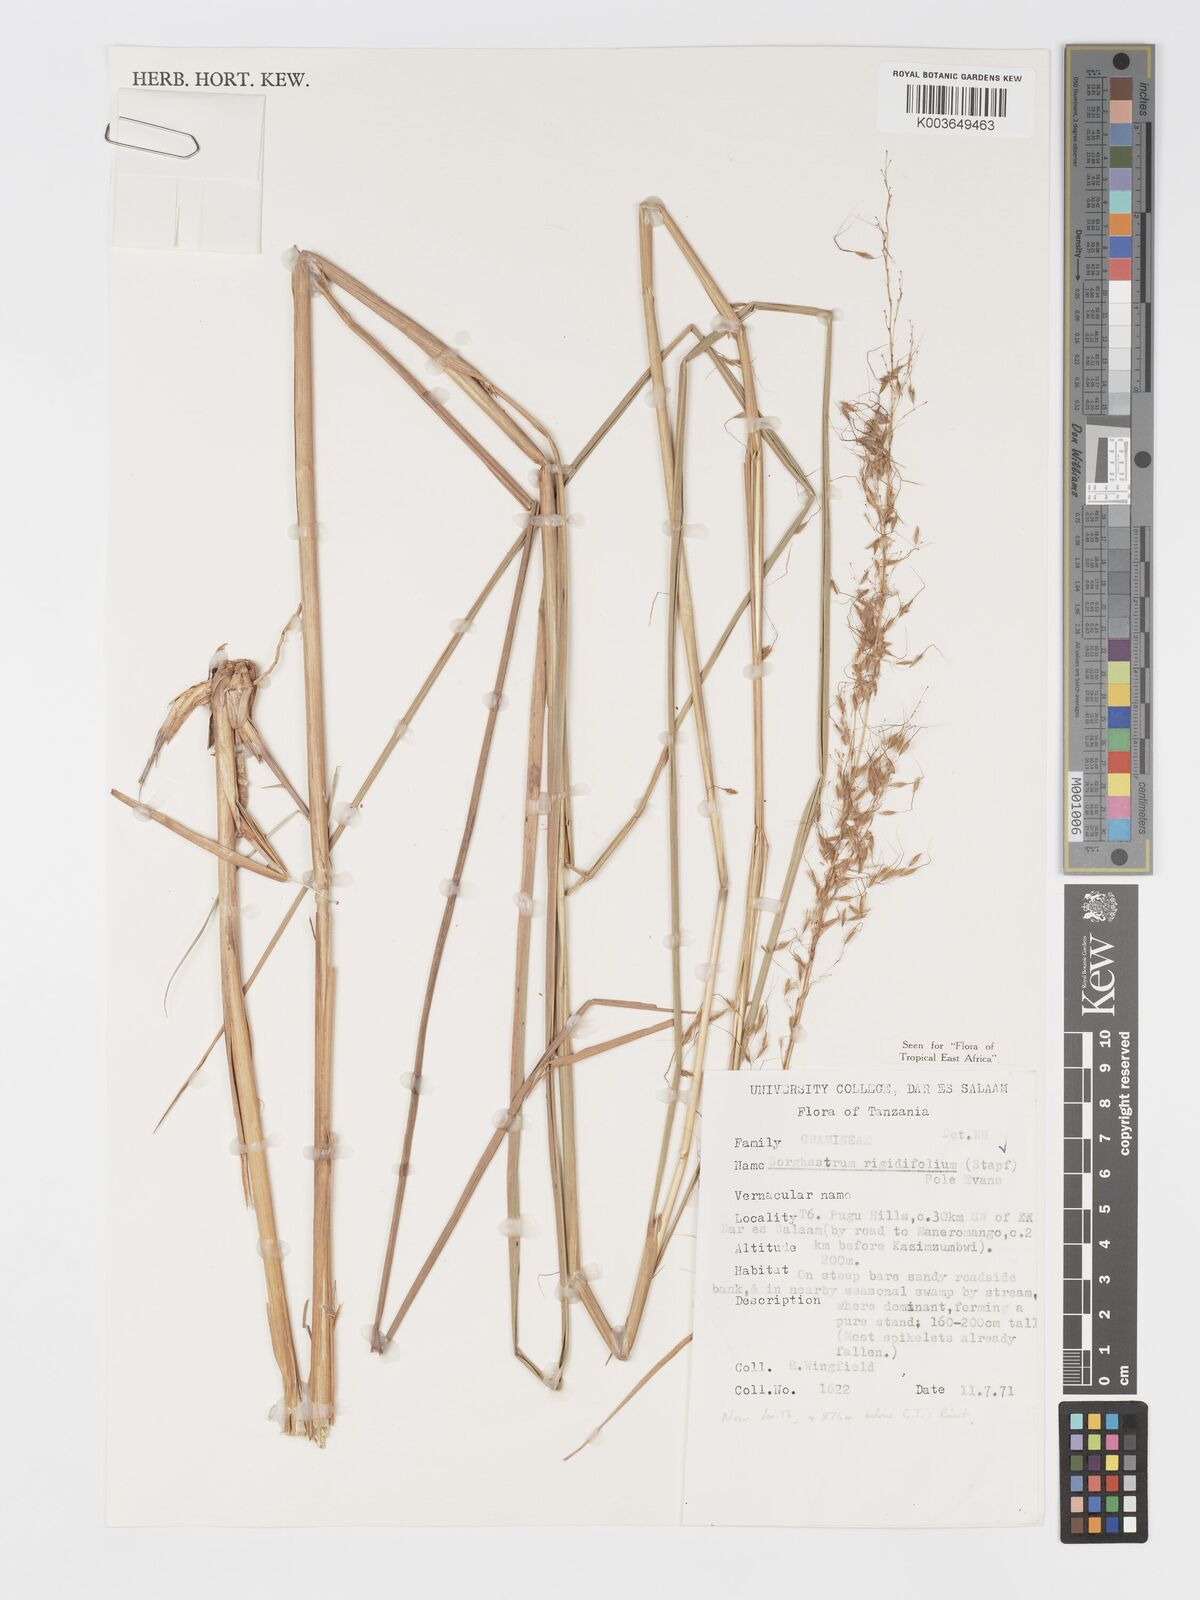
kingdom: Plantae
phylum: Tracheophyta
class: Liliopsida
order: Poales
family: Poaceae
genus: Sorghastrum
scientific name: Sorghastrum stipoides
